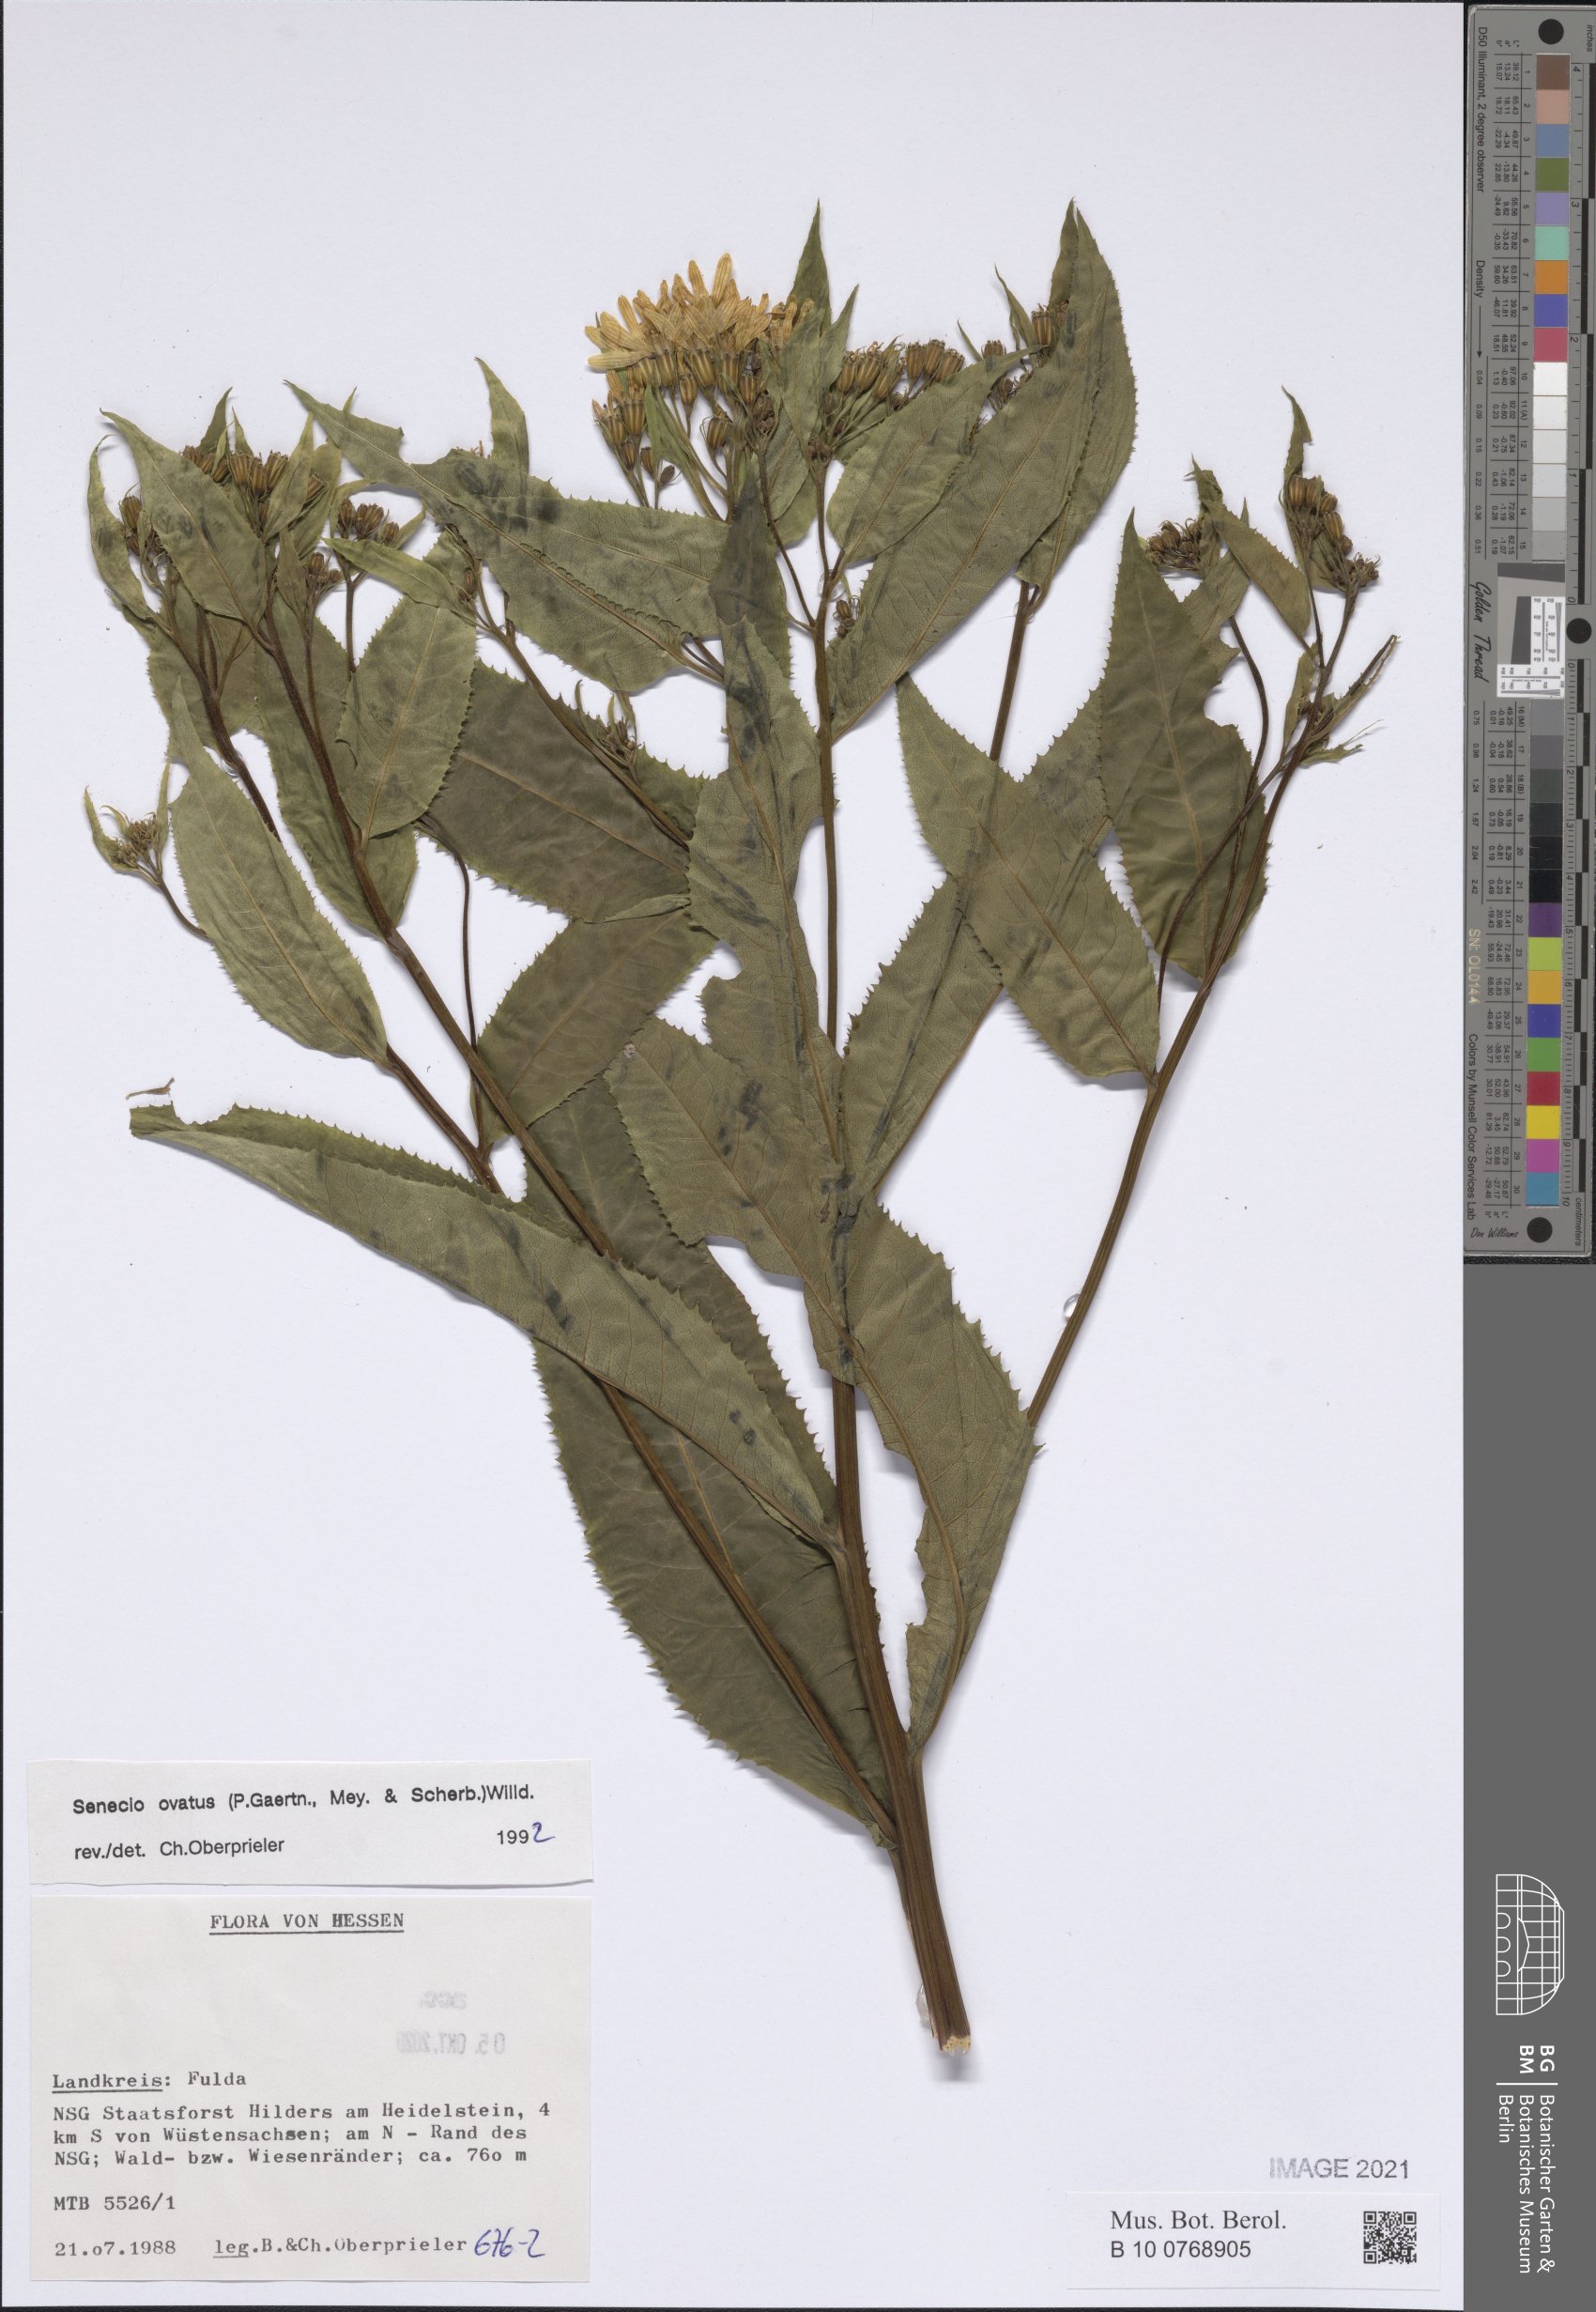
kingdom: Plantae
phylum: Tracheophyta
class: Magnoliopsida
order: Asterales
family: Asteraceae
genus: Senecio
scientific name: Senecio ovatus
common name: Wood ragwort
